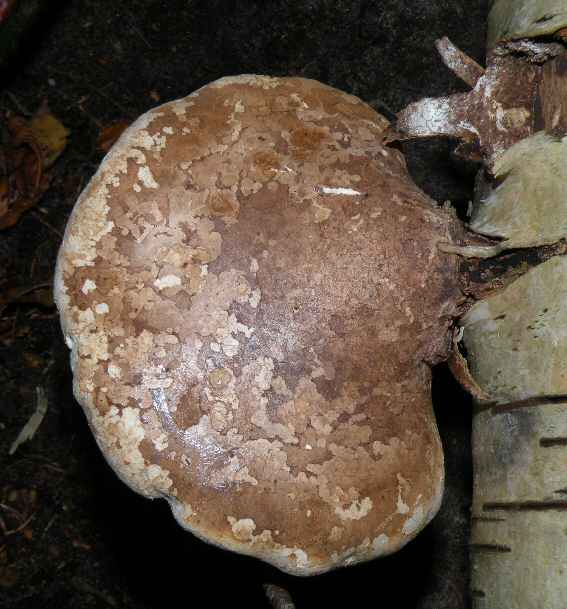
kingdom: Fungi
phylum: Basidiomycota
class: Agaricomycetes
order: Polyporales
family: Fomitopsidaceae
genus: Fomitopsis
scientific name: Fomitopsis betulina
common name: birkeporesvamp
